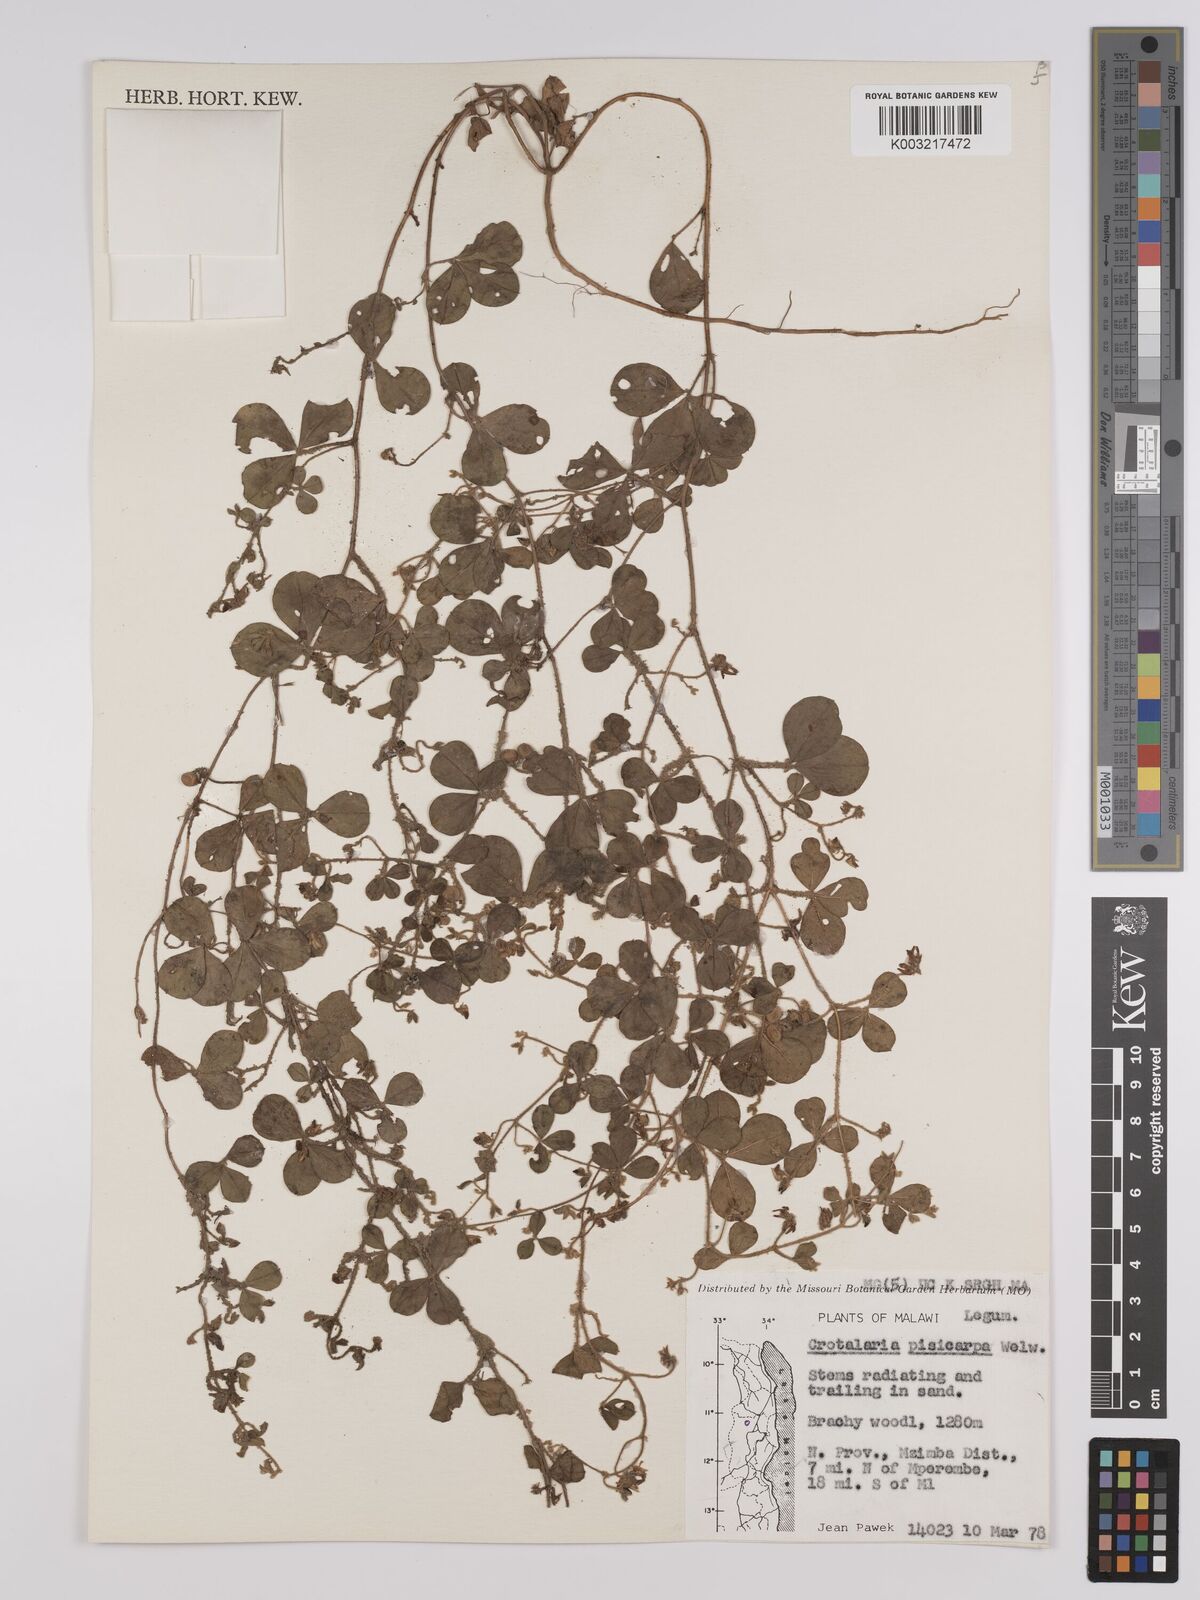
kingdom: Plantae
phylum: Tracheophyta
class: Magnoliopsida
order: Fabales
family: Fabaceae
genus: Crotalaria
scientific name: Crotalaria pisicarpa
